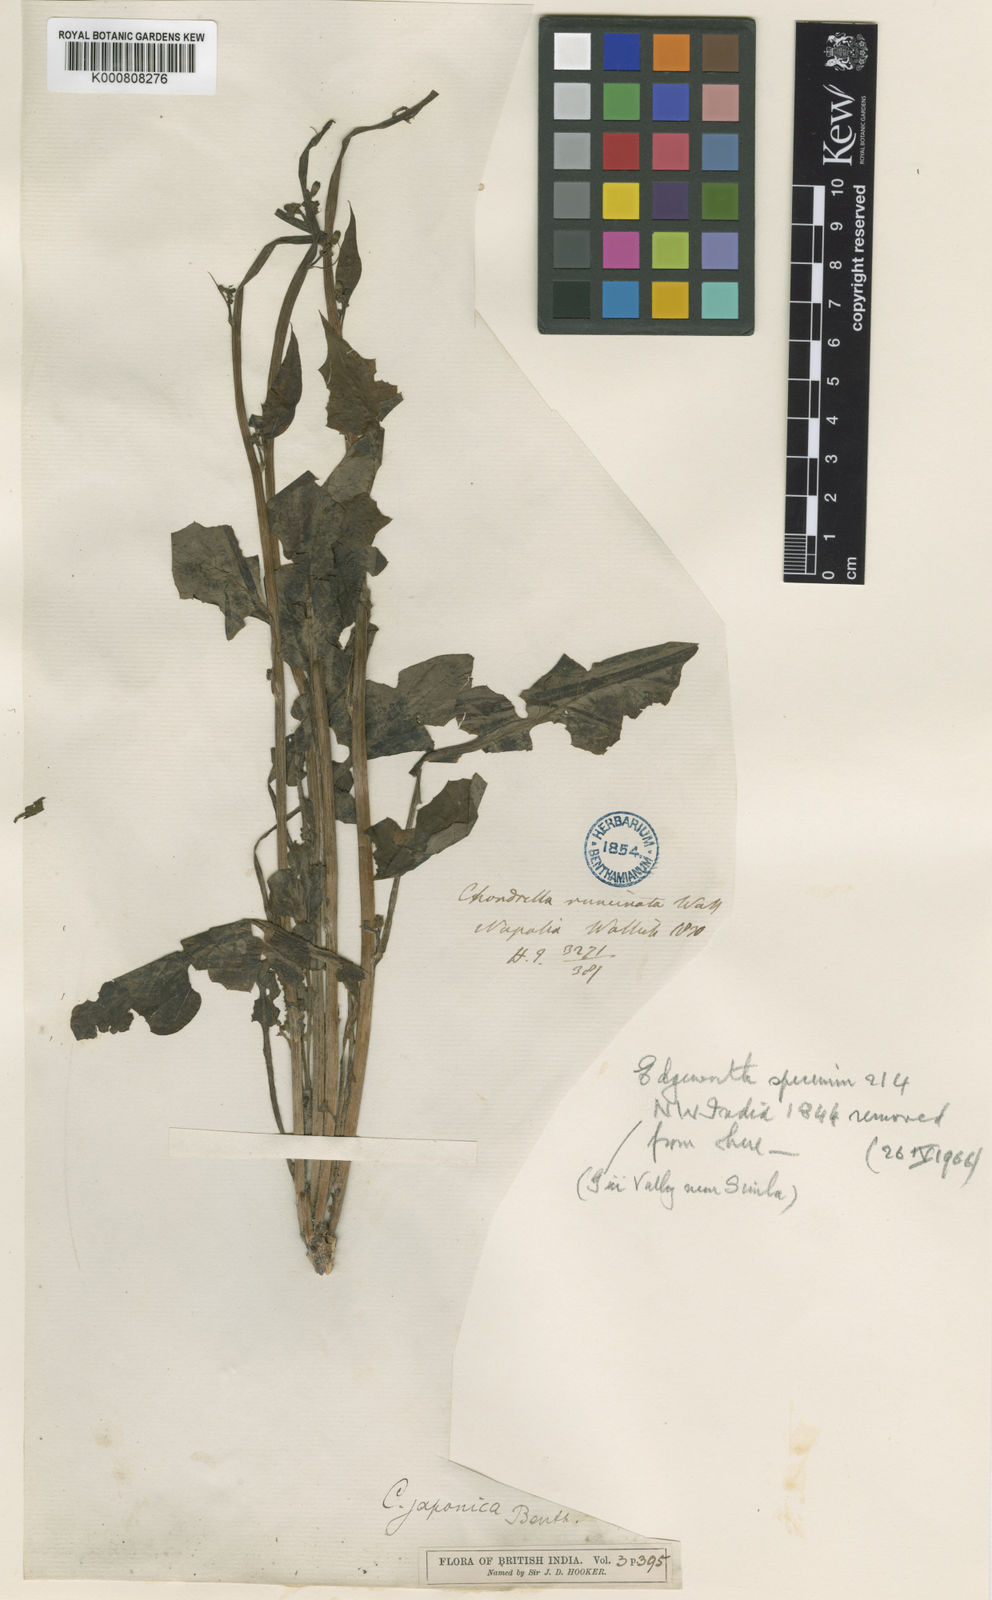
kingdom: Plantae
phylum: Tracheophyta
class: Magnoliopsida
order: Asterales
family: Asteraceae
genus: Youngia
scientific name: Youngia japonica
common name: Oriental false hawksbeard
